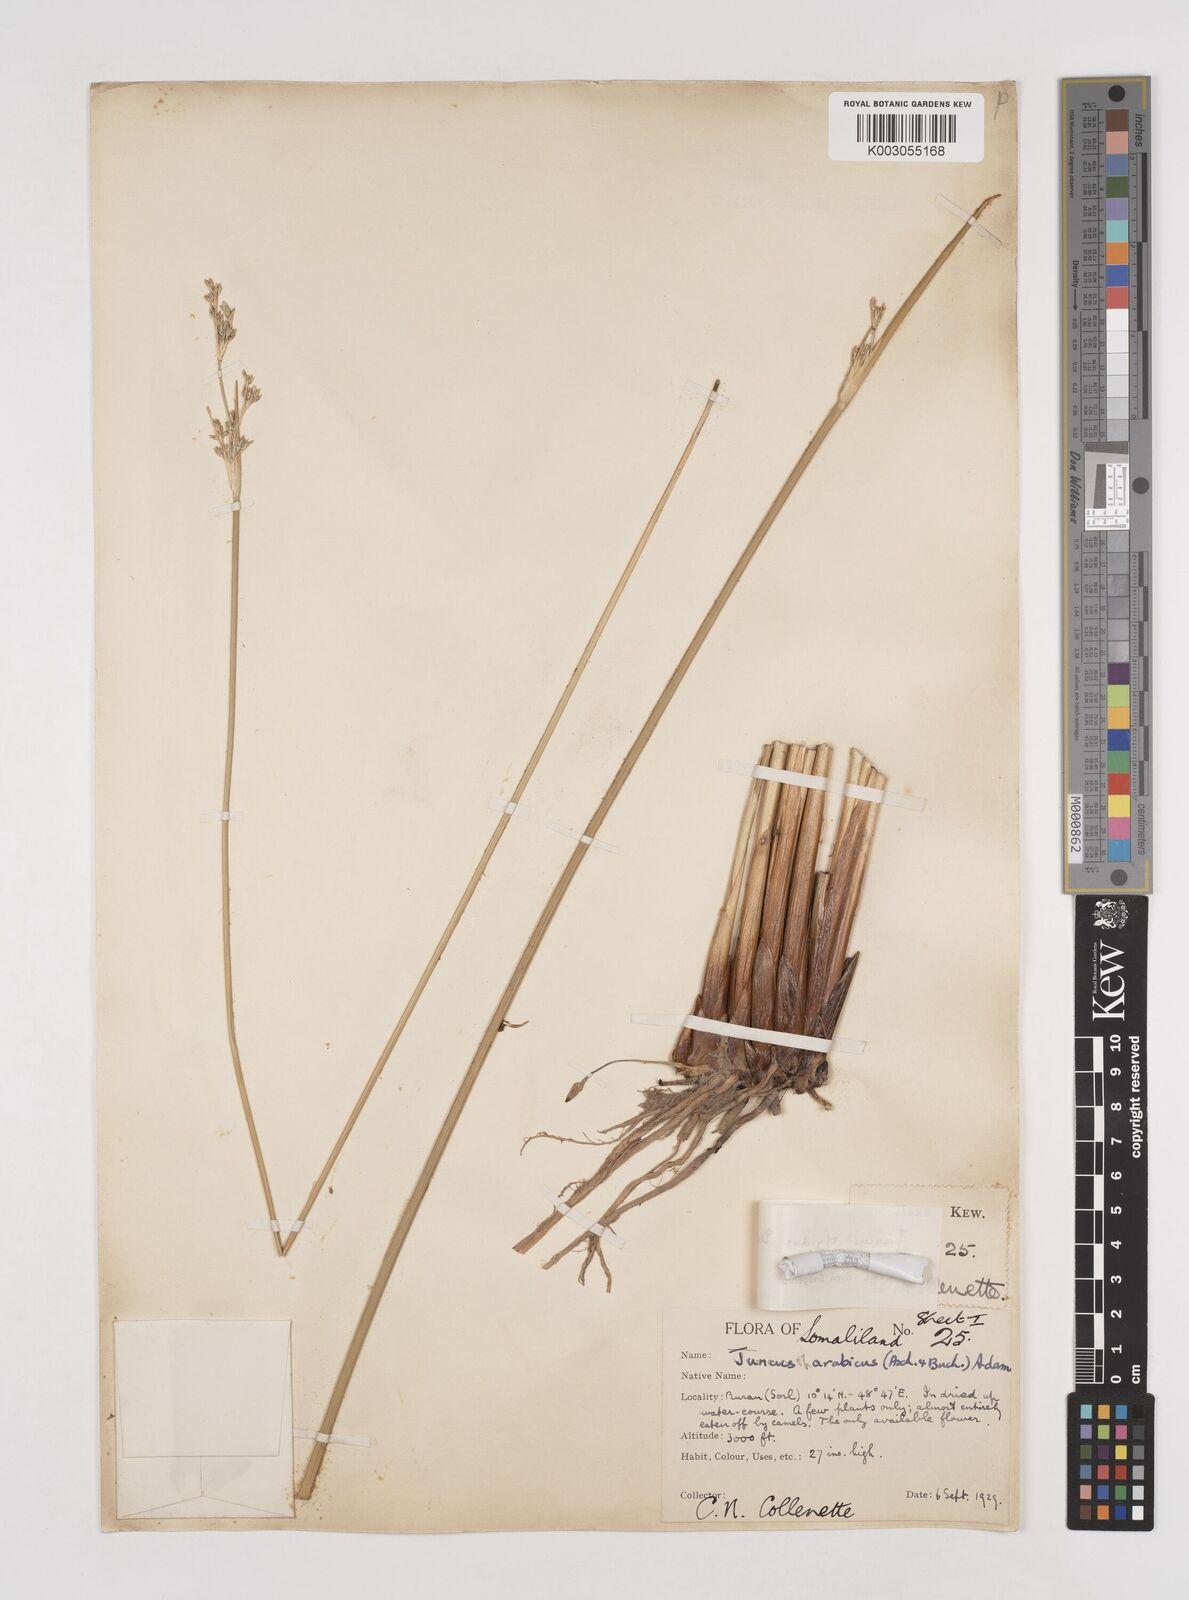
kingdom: Plantae
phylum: Tracheophyta
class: Liliopsida
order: Poales
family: Juncaceae
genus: Juncus
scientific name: Juncus rigidus
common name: Hard sea rush
